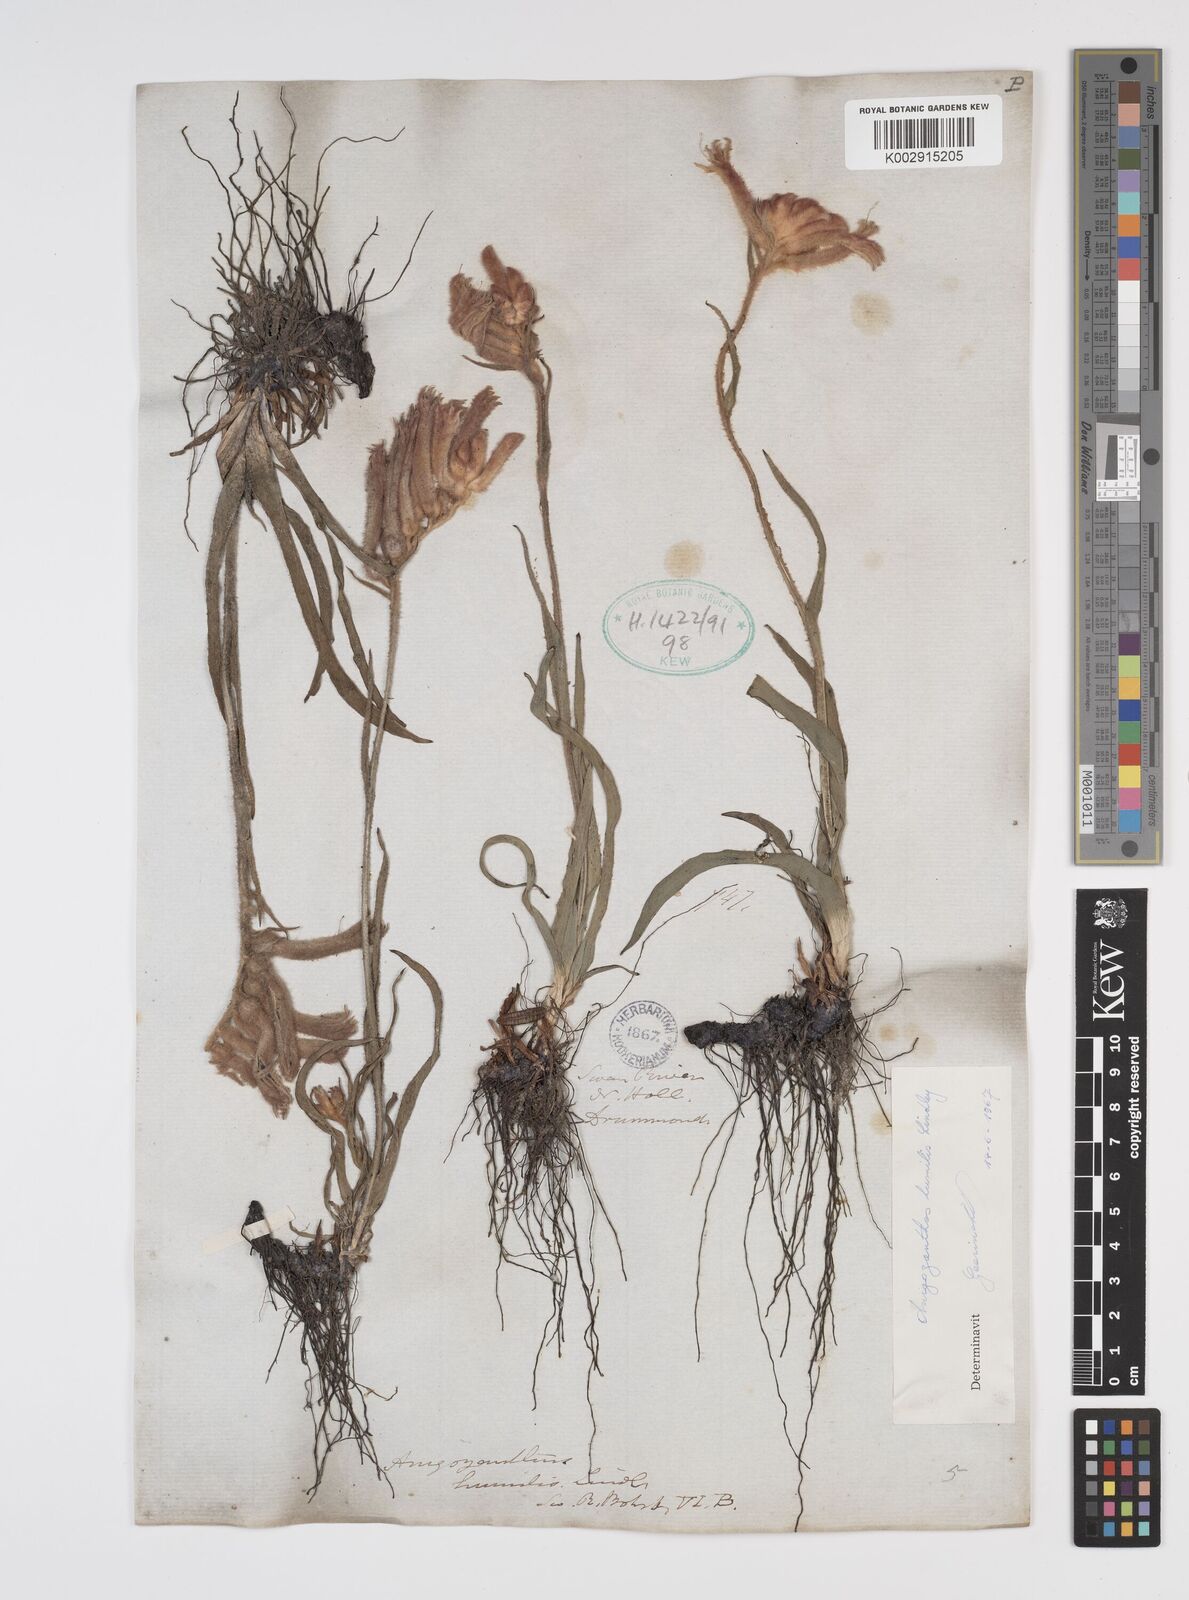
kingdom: Plantae
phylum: Tracheophyta
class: Liliopsida
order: Commelinales
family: Haemodoraceae
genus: Anigozanthos
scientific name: Anigozanthos humilis
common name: Cat's-paw
